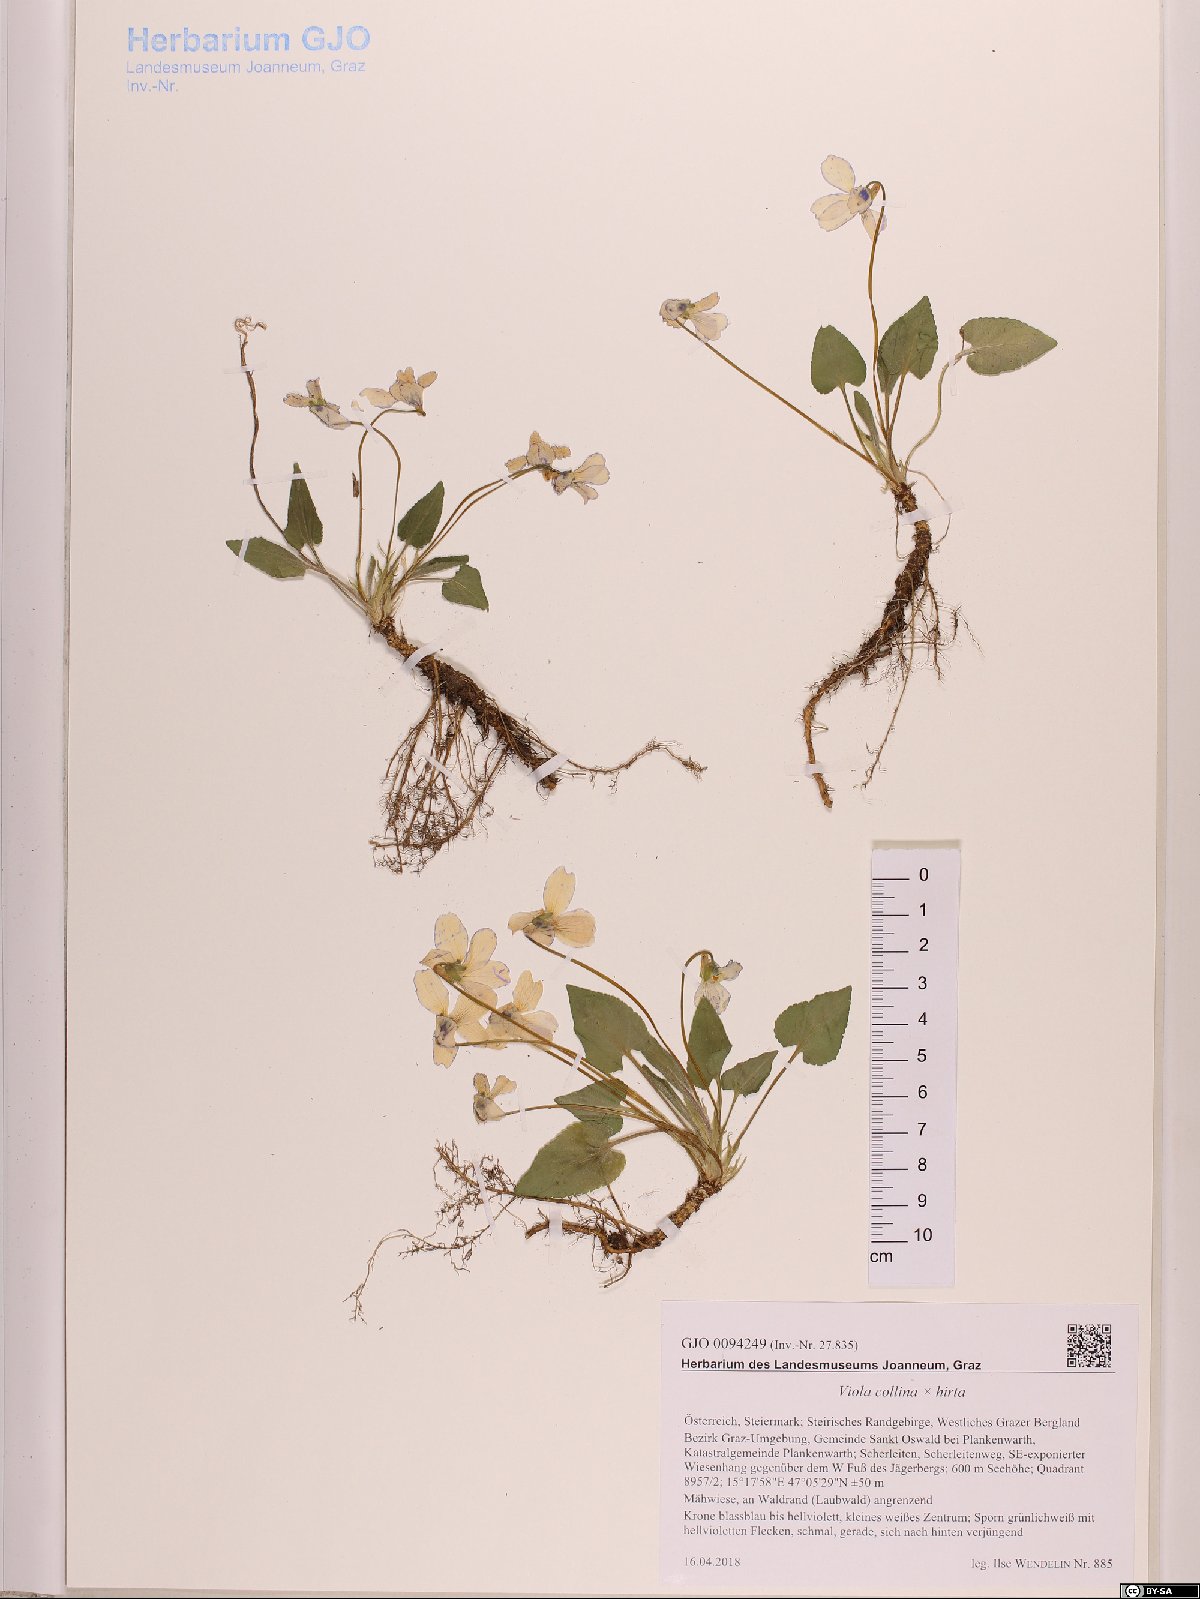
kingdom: Plantae
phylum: Tracheophyta
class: Magnoliopsida
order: Malpighiales
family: Violaceae
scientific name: Violaceae
